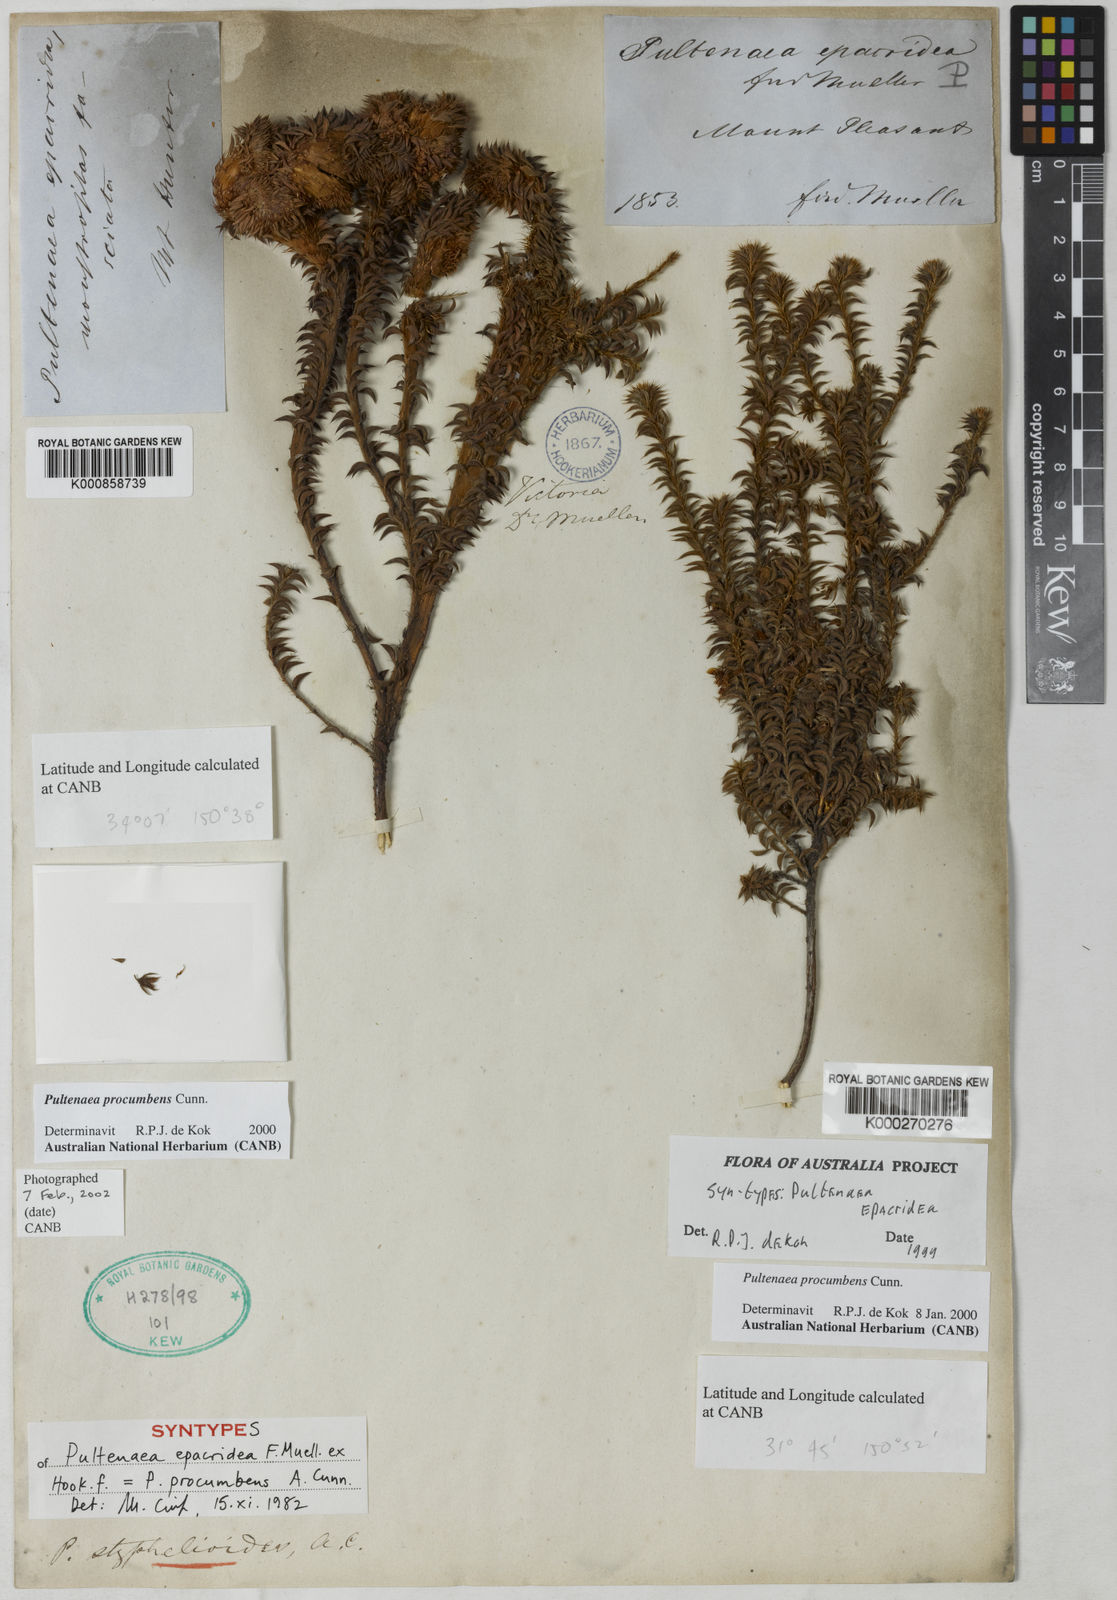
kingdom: Plantae
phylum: Tracheophyta
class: Magnoliopsida
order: Fabales
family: Fabaceae
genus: Pultenaea
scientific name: Pultenaea procumbens
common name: Heathy bush-pea
